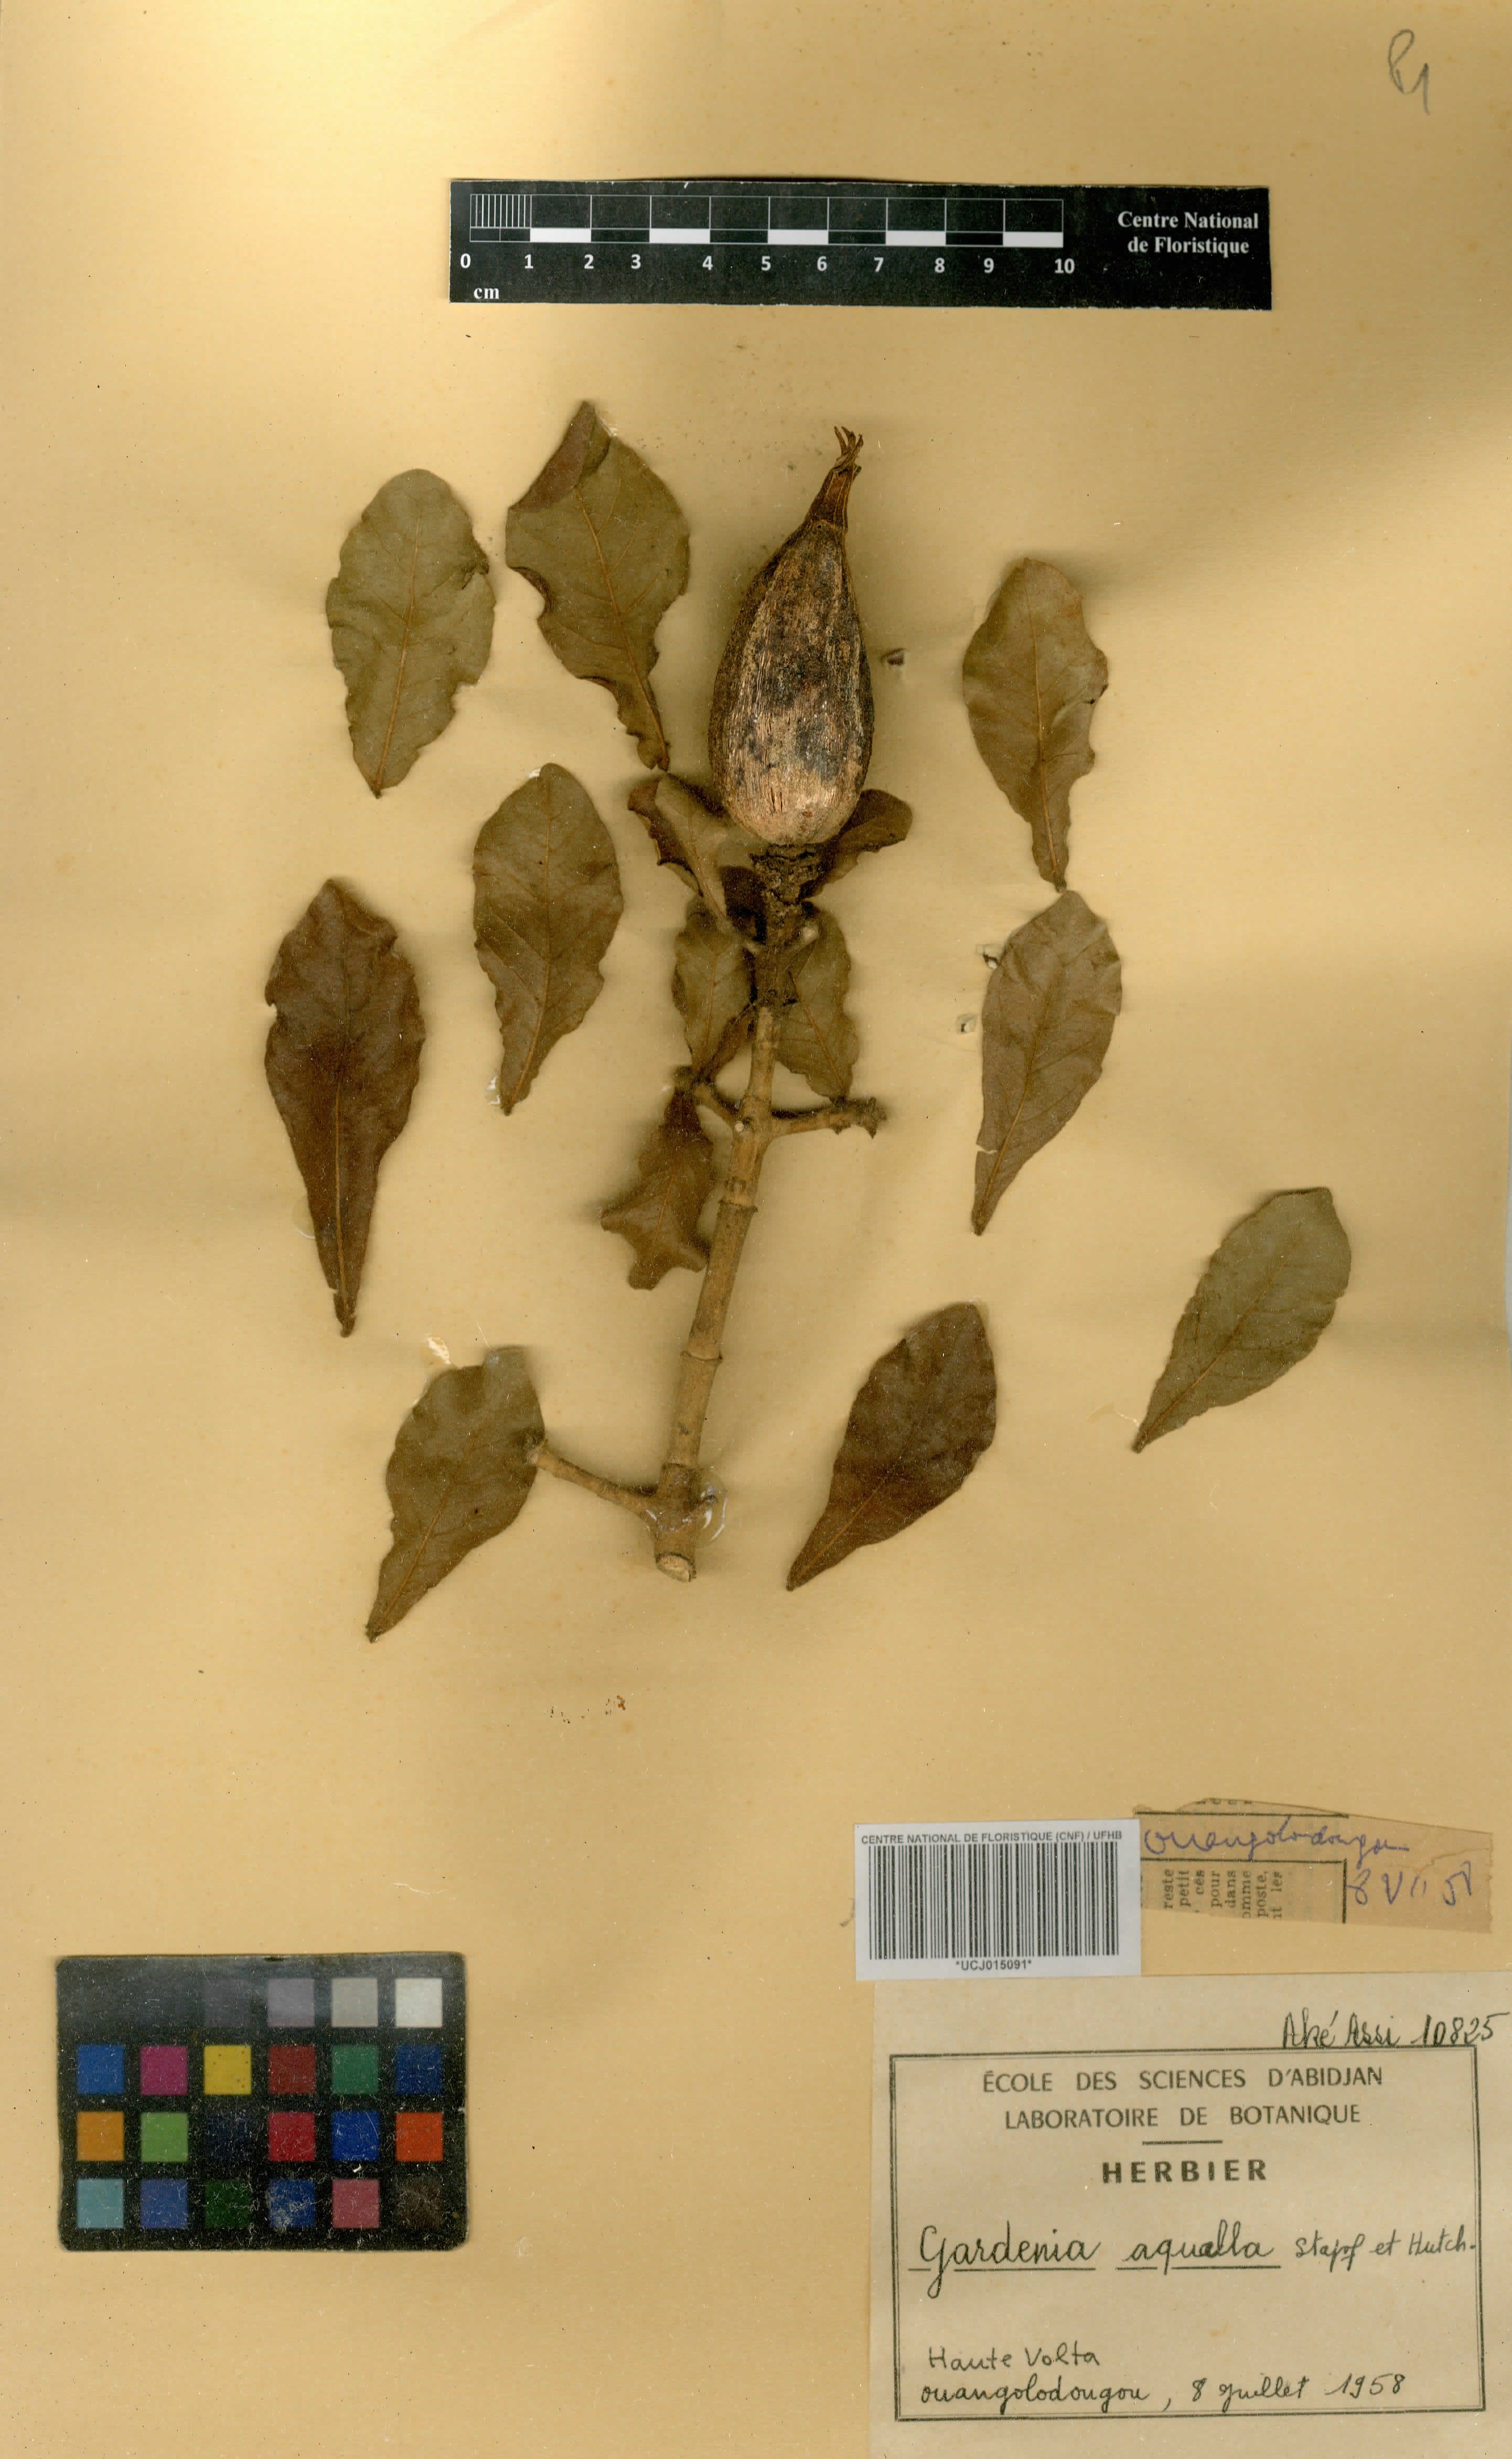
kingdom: Plantae
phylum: Tracheophyta
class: Magnoliopsida
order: Gentianales
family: Rubiaceae
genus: Gardenia
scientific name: Gardenia aqualla
